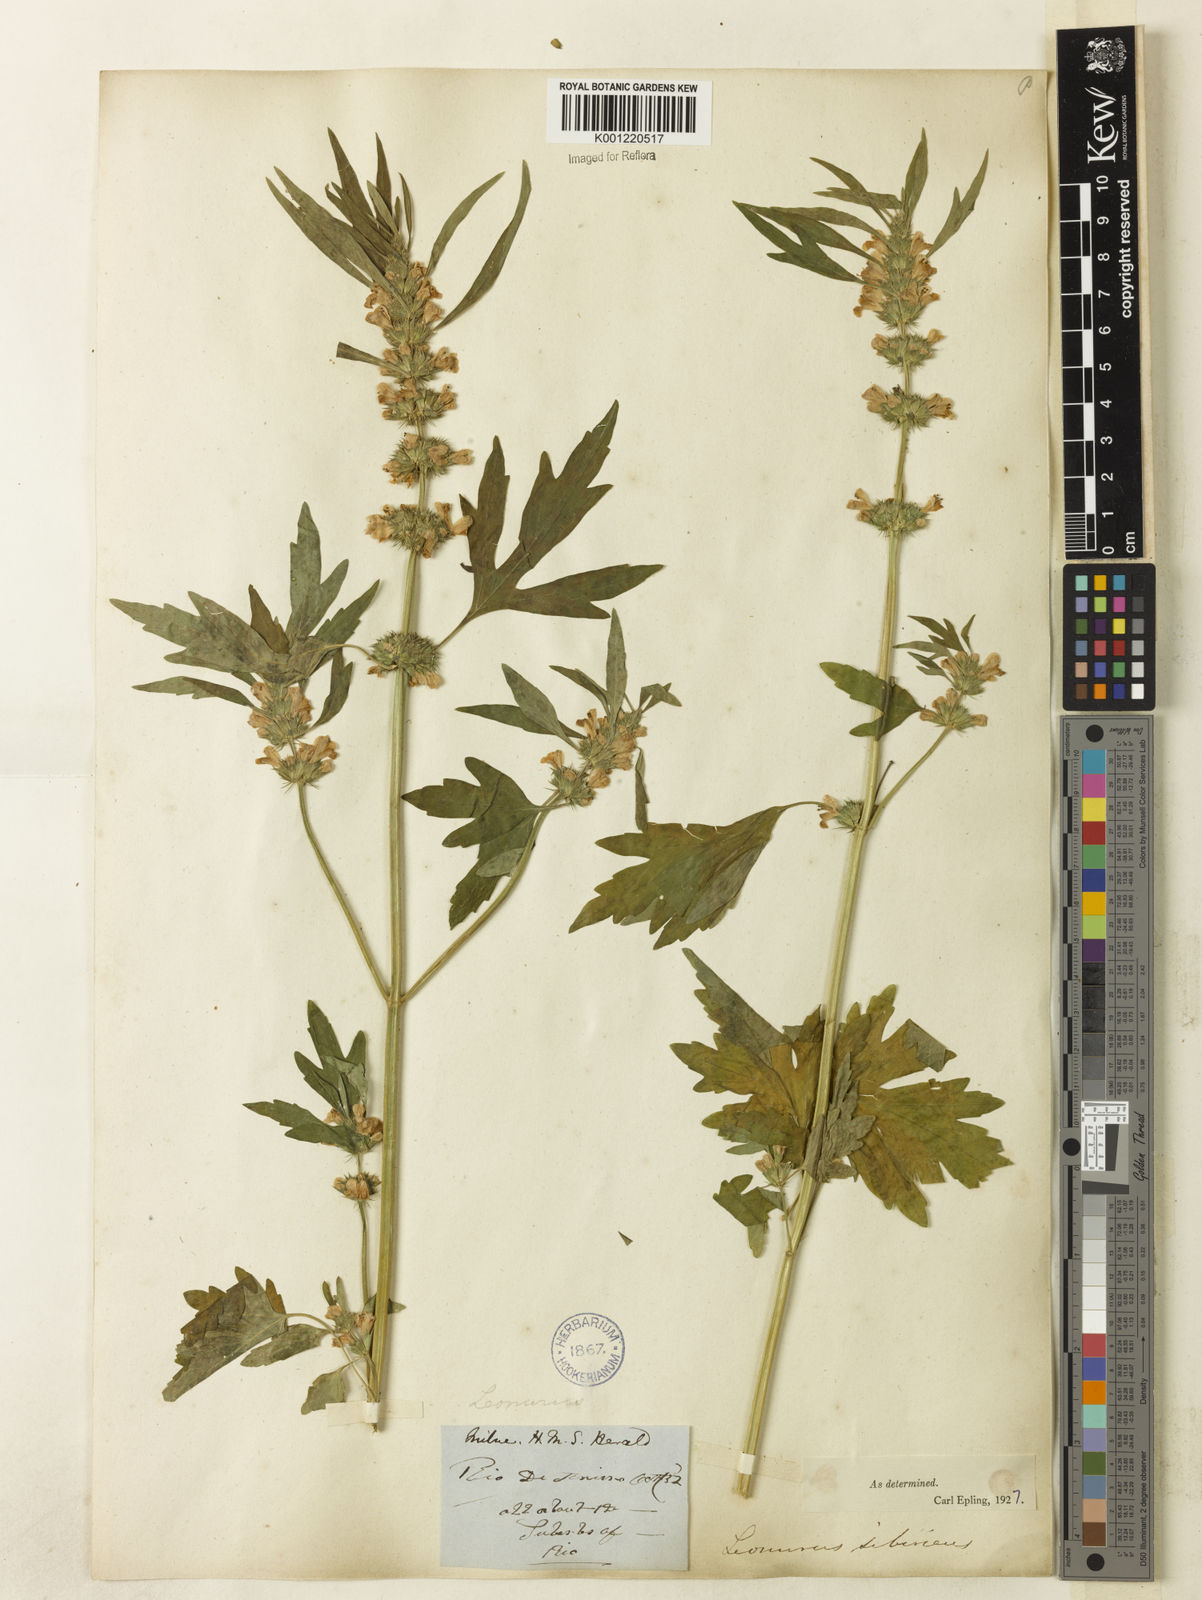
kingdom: Plantae
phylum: Tracheophyta
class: Magnoliopsida
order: Lamiales
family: Lamiaceae
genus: Leonurus
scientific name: Leonurus japonicus
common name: Honeyweed
